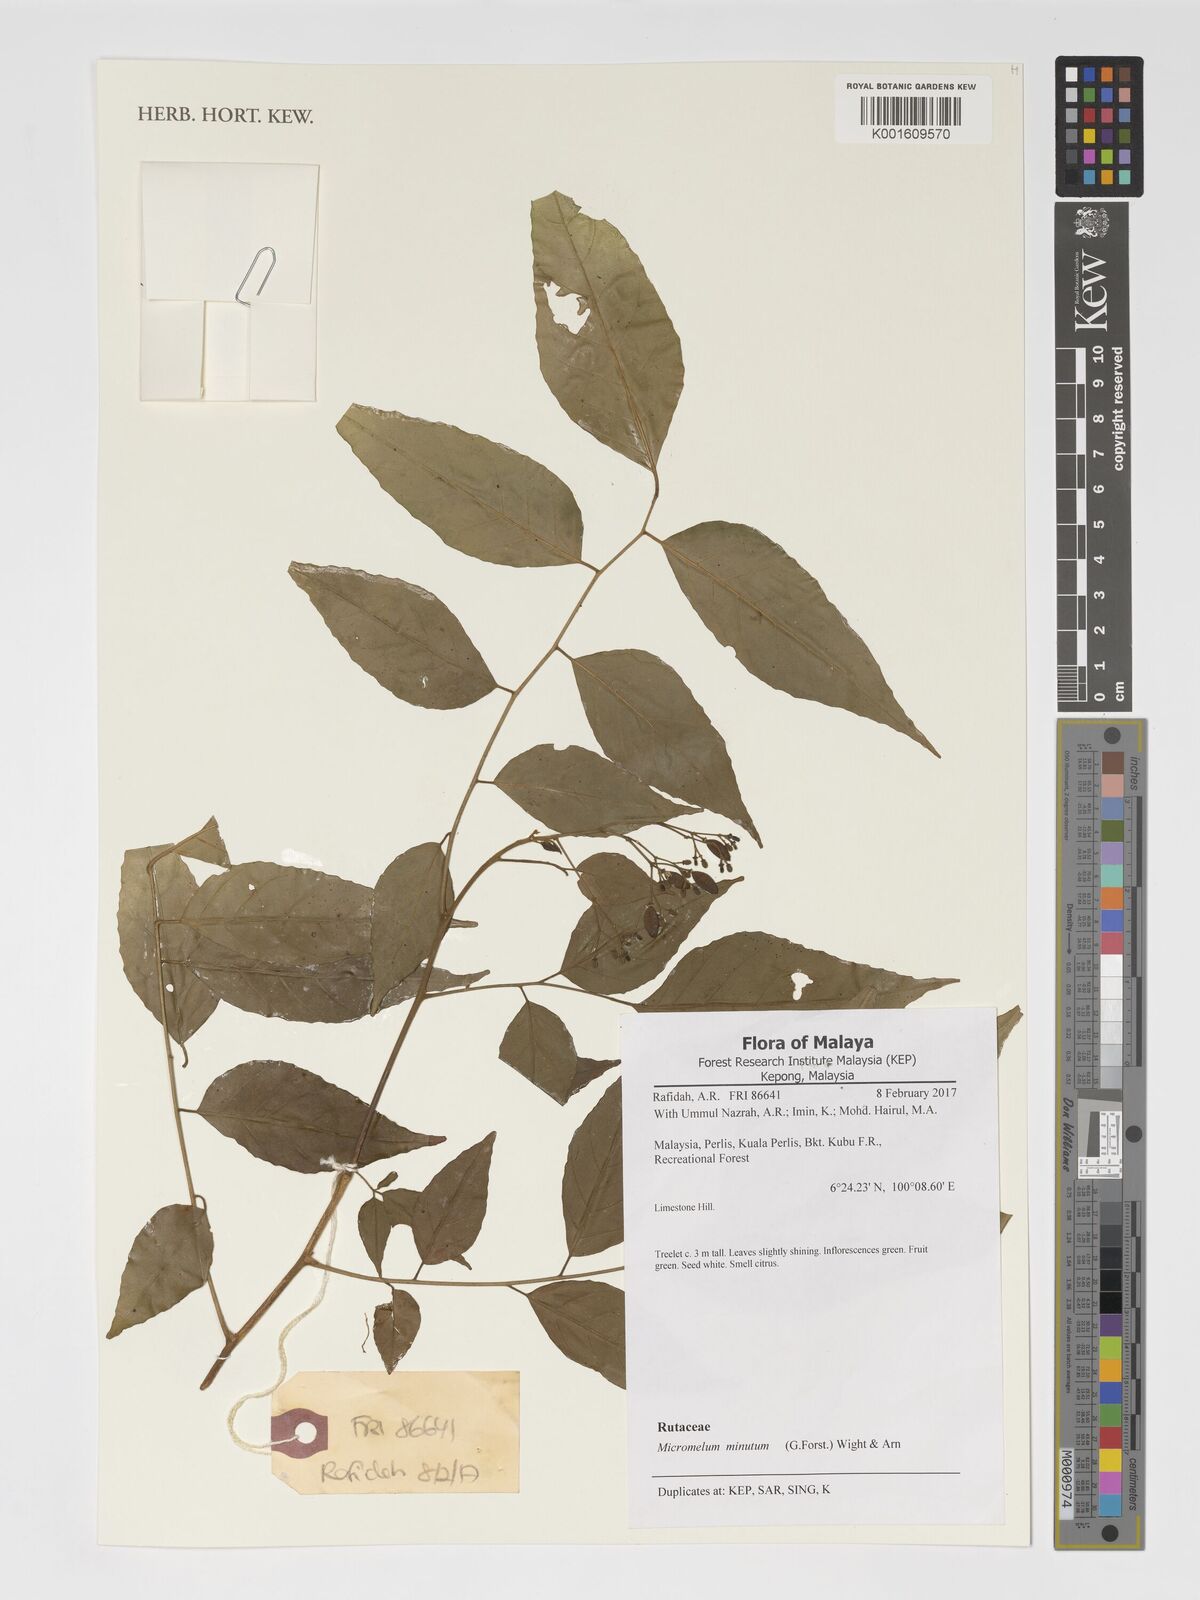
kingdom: Plantae
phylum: Tracheophyta
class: Magnoliopsida
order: Sapindales
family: Rutaceae
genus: Micromelum
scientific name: Micromelum minutum
